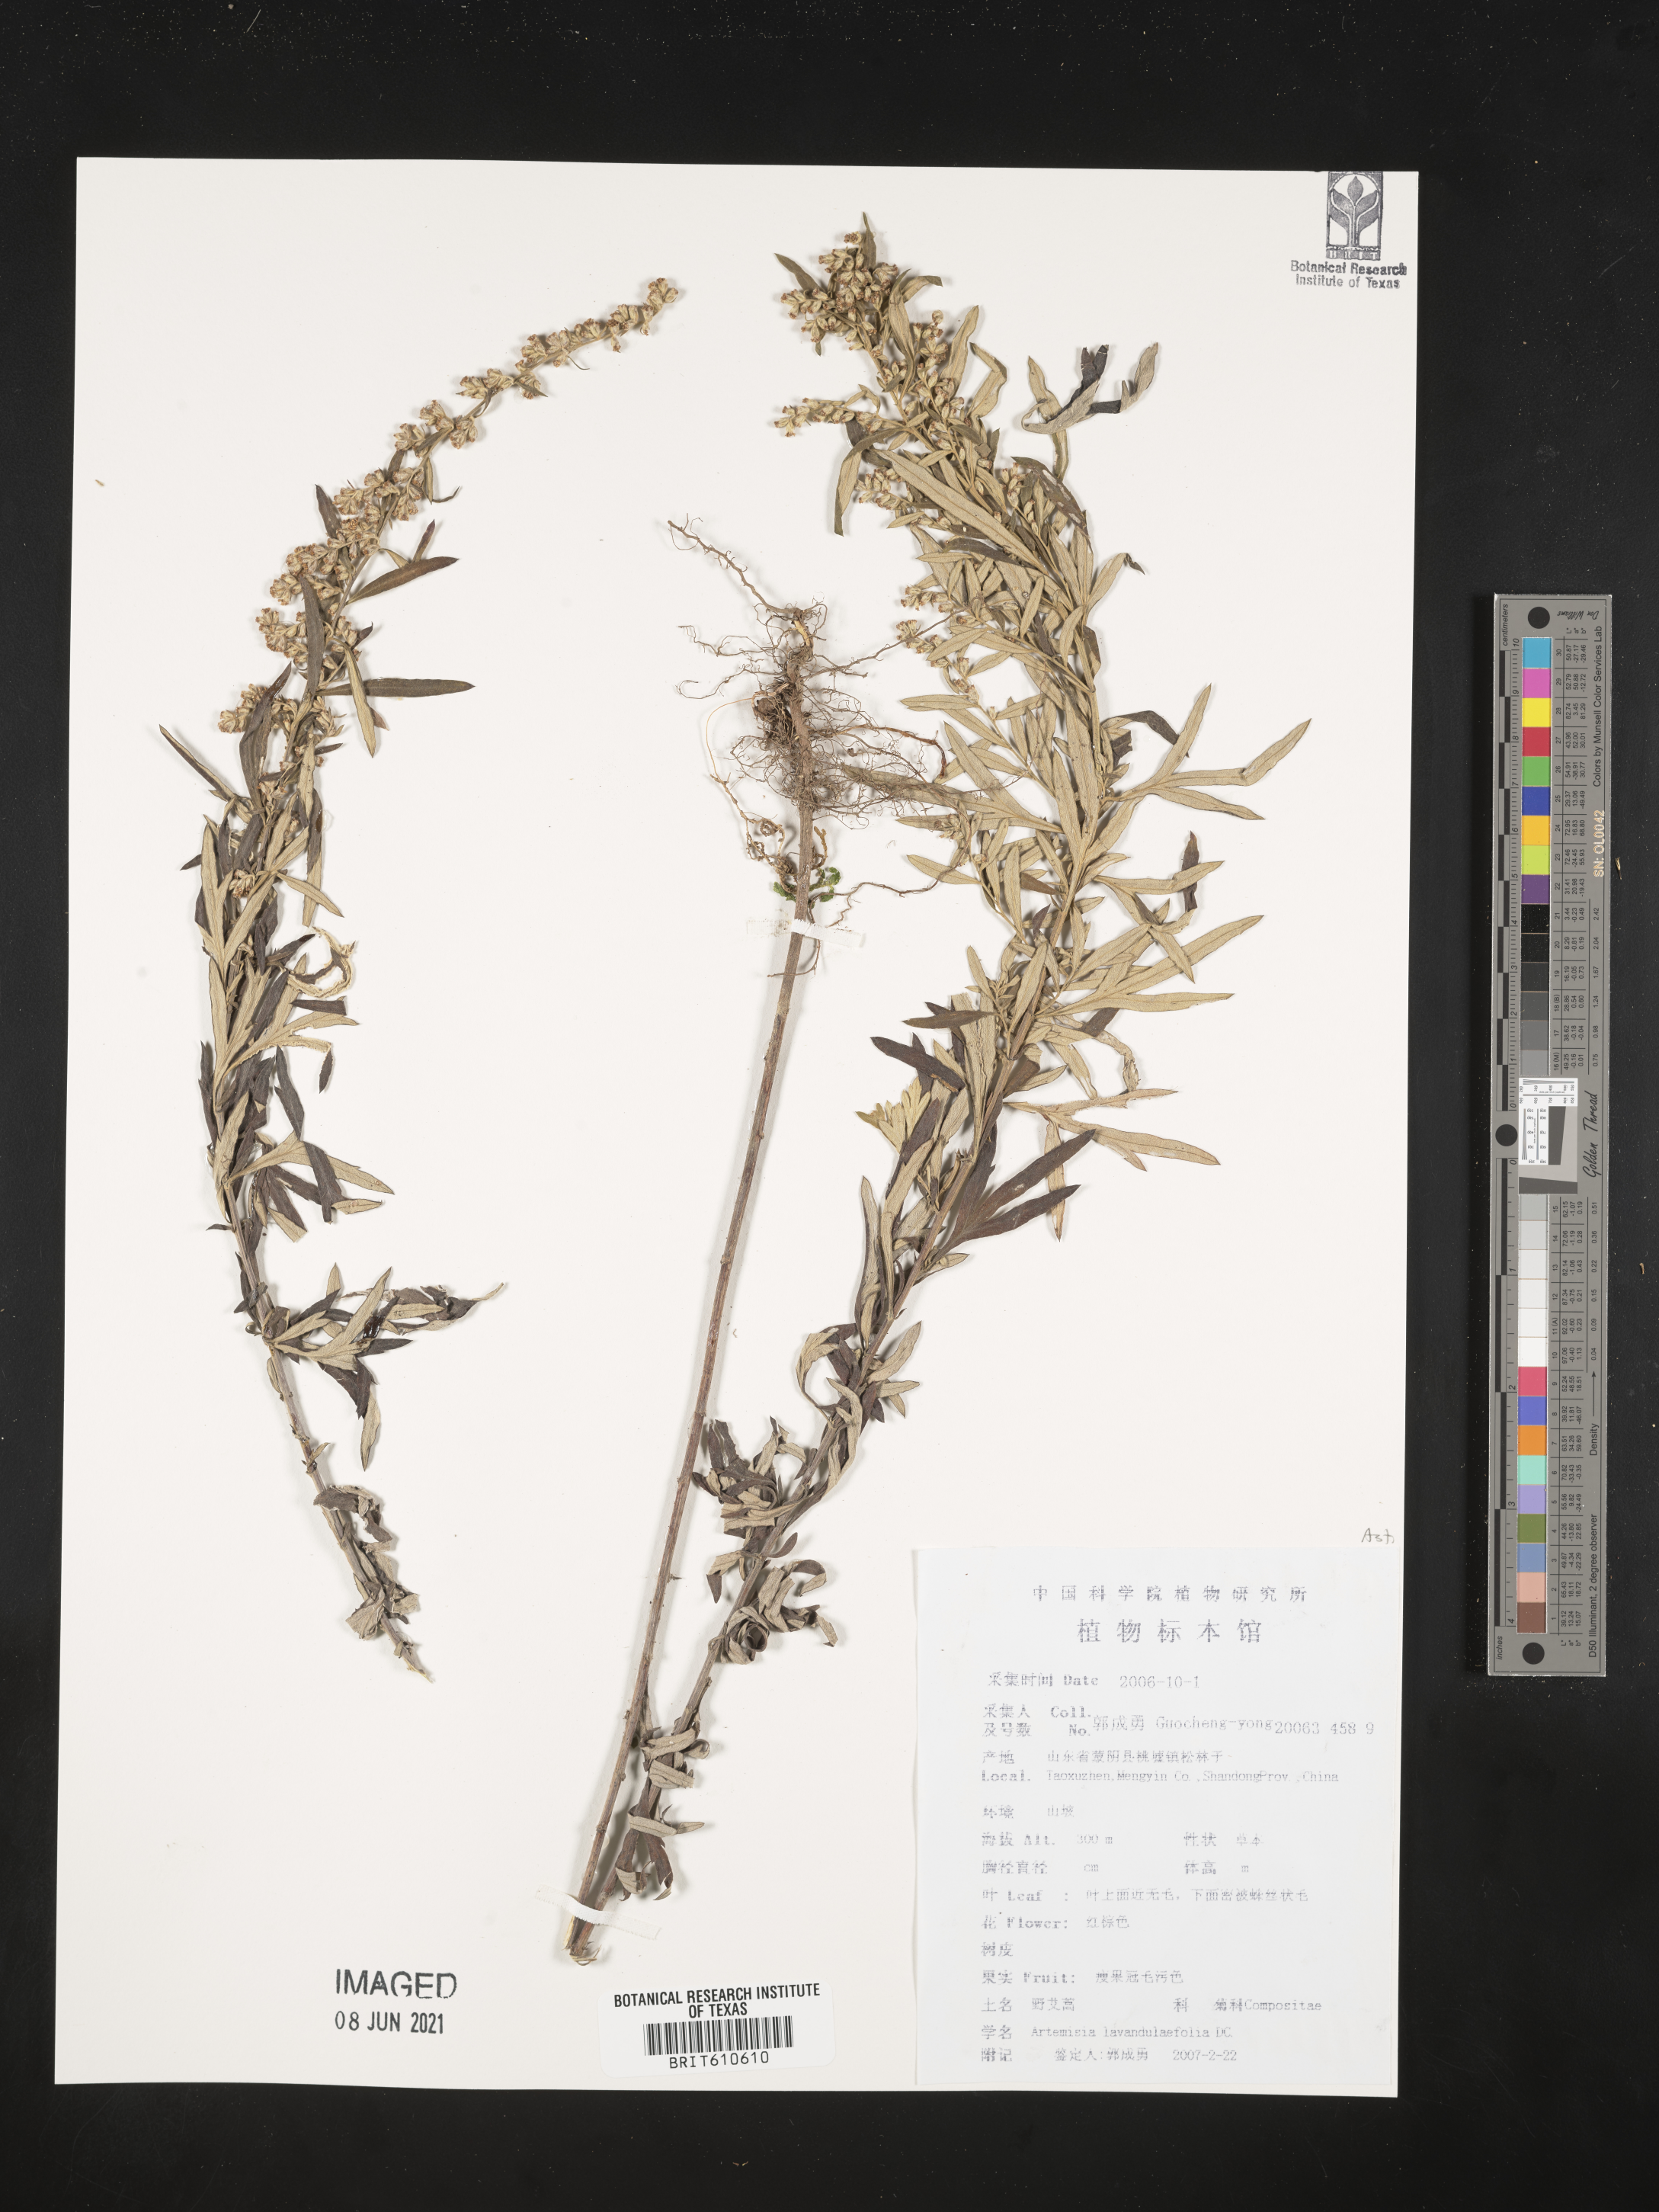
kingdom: Plantae
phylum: Tracheophyta
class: Magnoliopsida
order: Asterales
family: Asteraceae
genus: Artemisia
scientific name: Artemisia caerulescens
